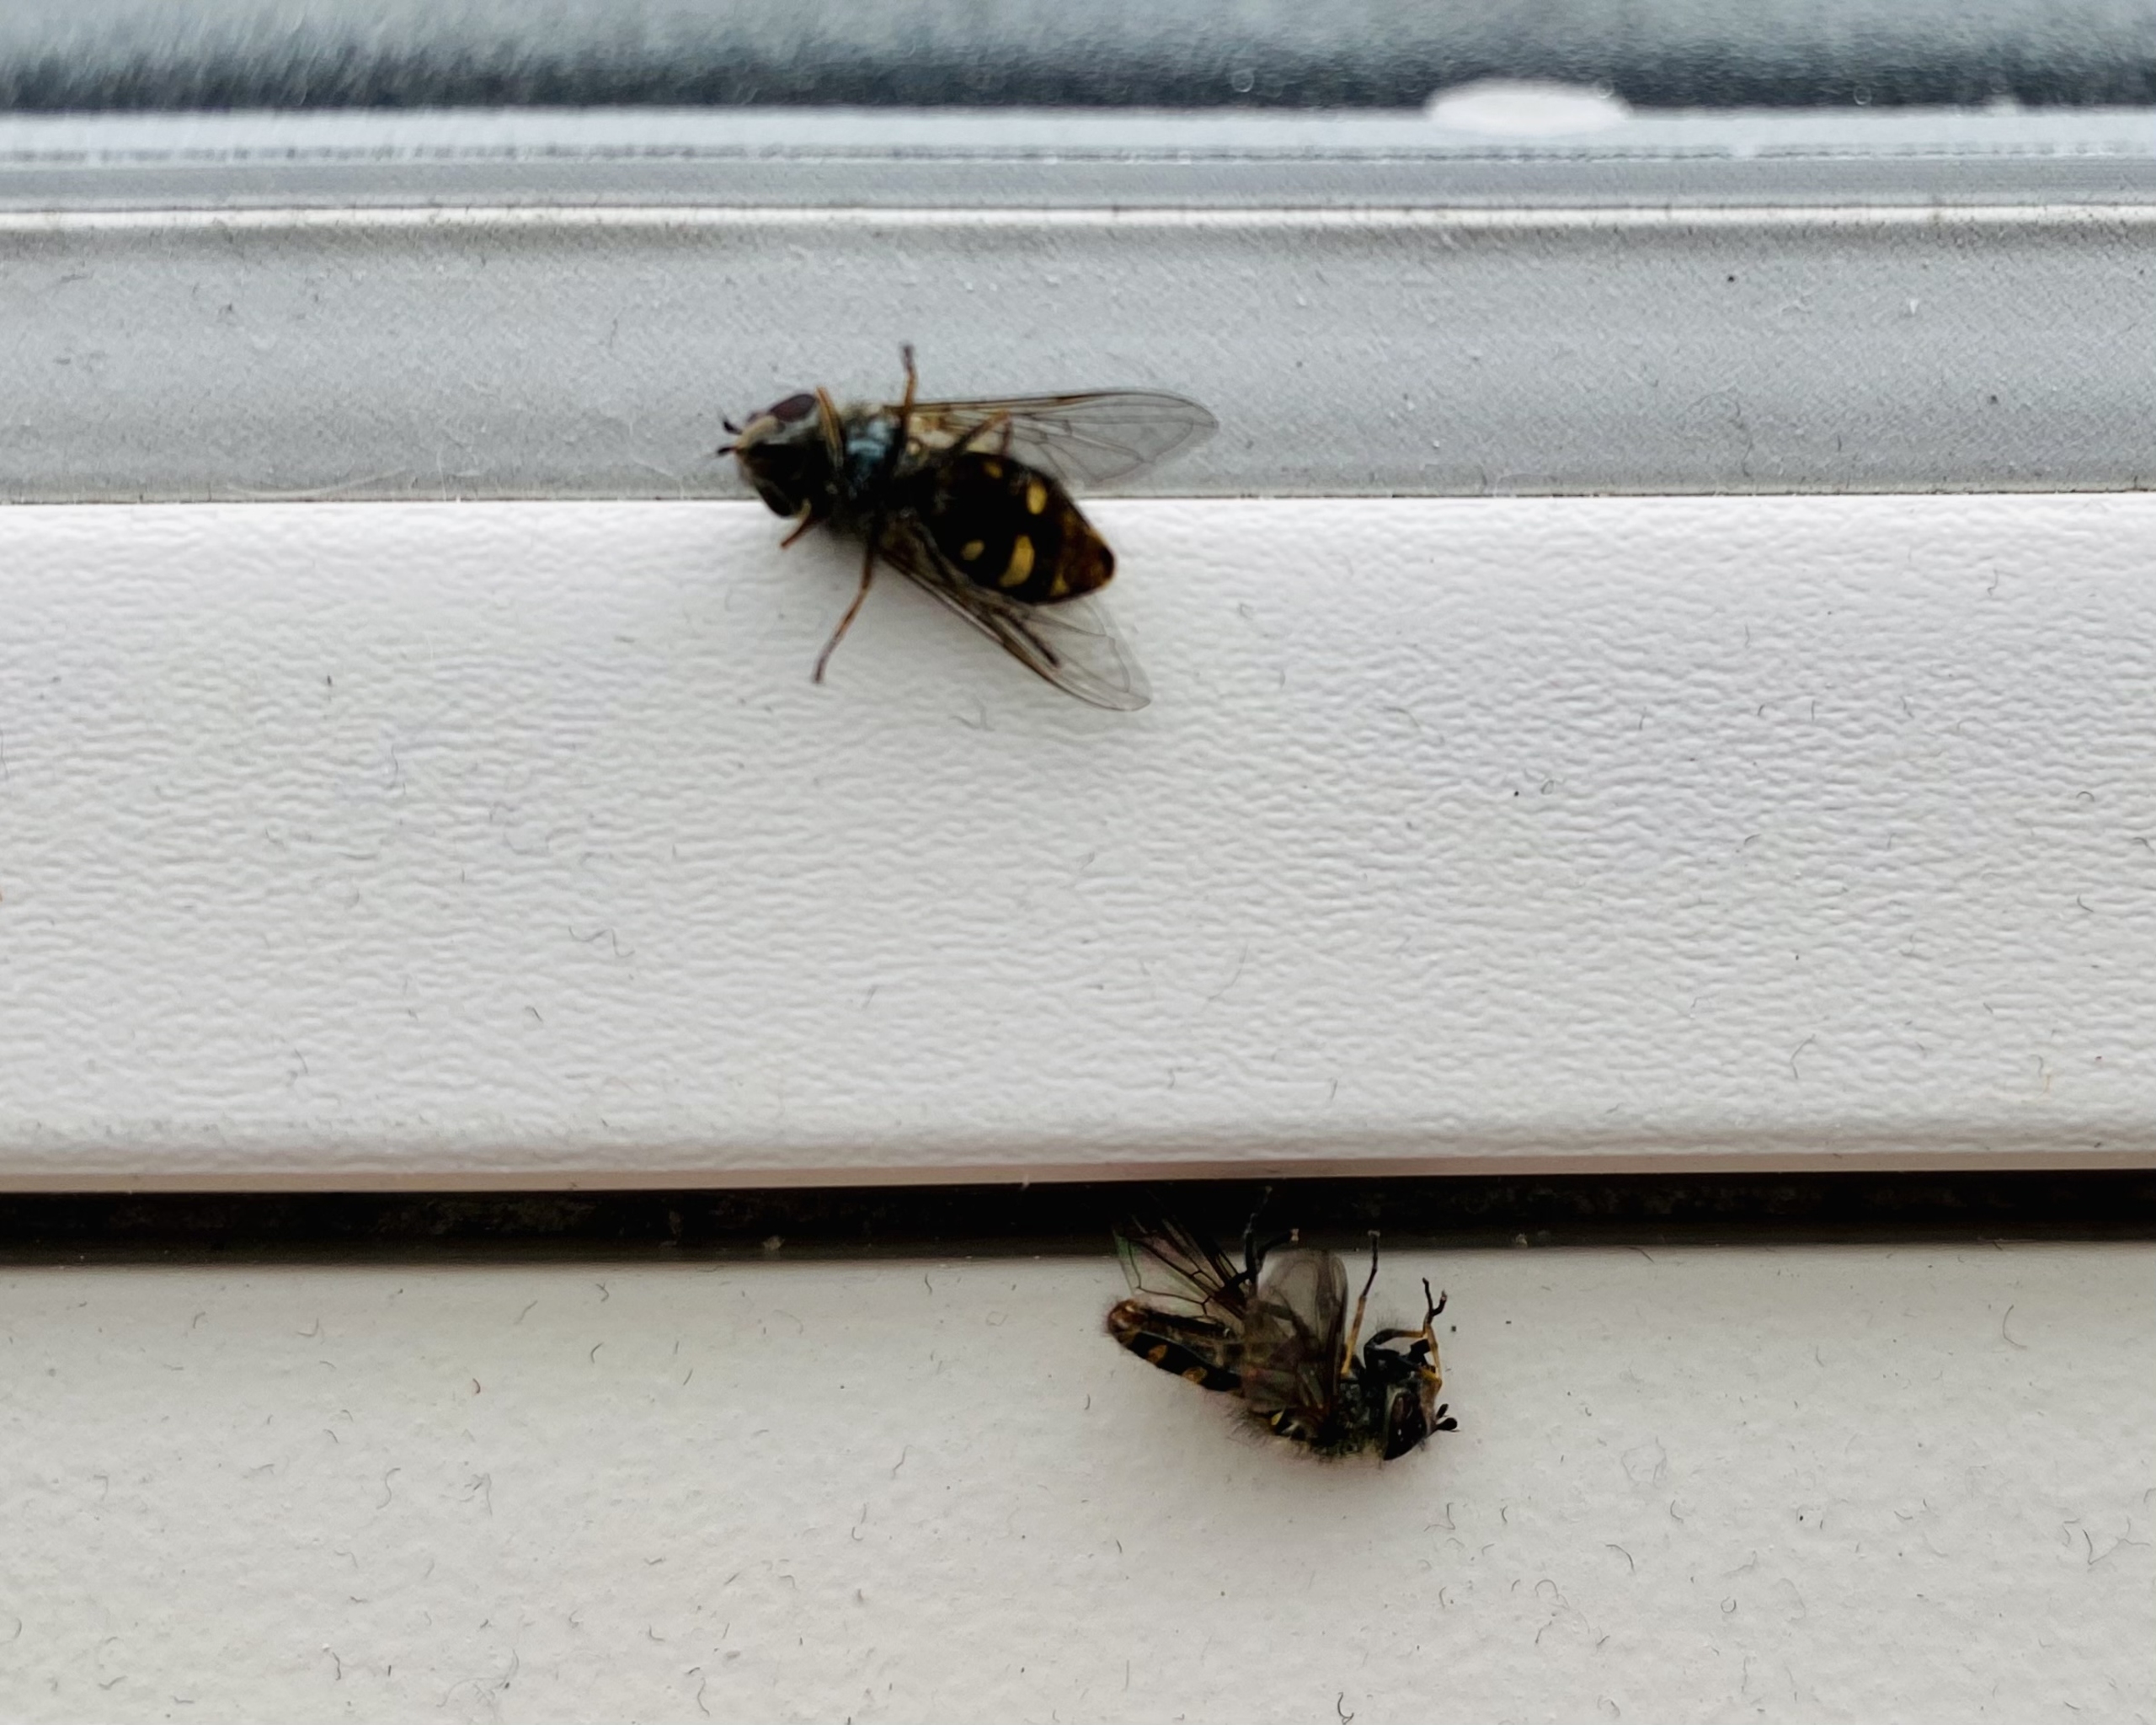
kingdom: Animalia
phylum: Arthropoda
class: Insecta
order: Diptera
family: Syrphidae
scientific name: Syrphidae
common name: Svirrefluer
